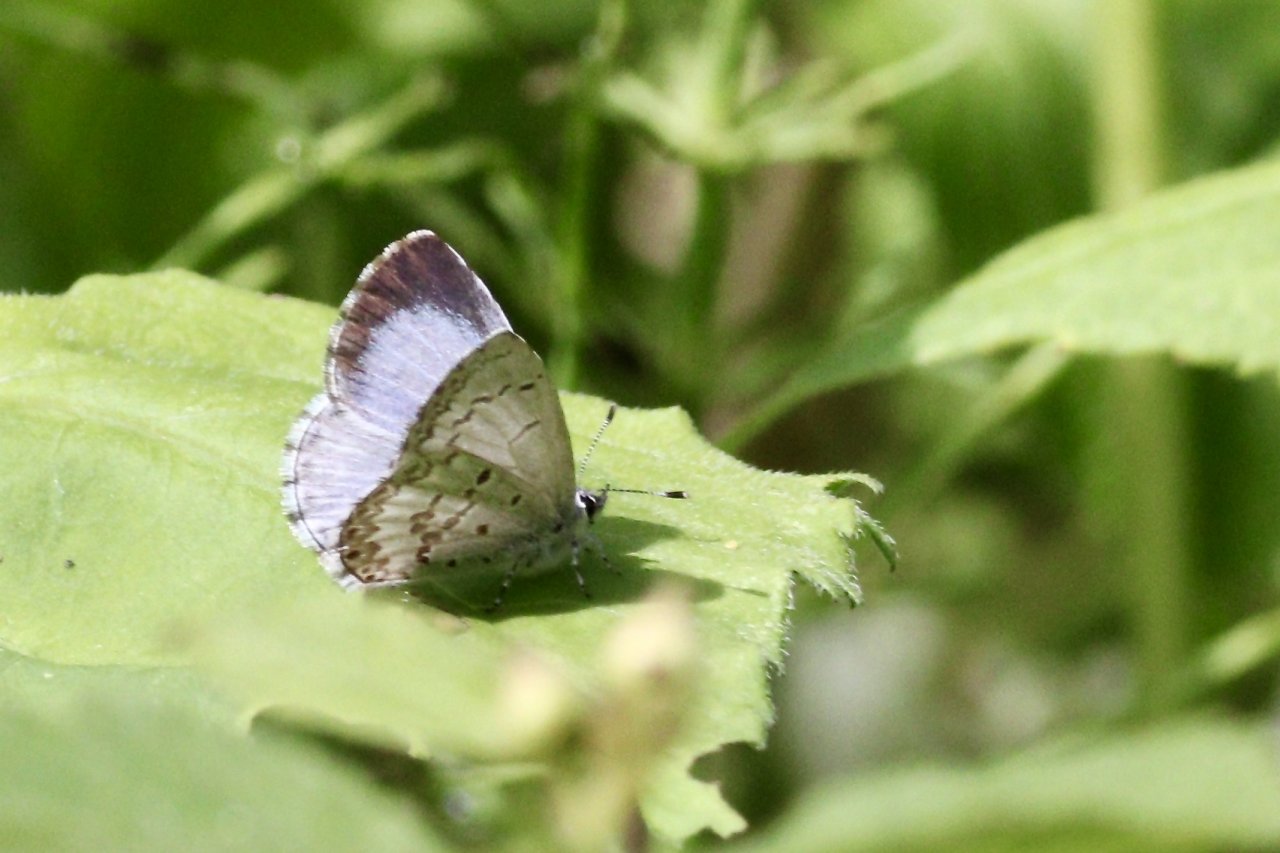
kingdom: Animalia
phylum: Arthropoda
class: Insecta
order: Lepidoptera
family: Lycaenidae
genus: Celastrina
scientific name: Celastrina lucia
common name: Northern Spring Azure
